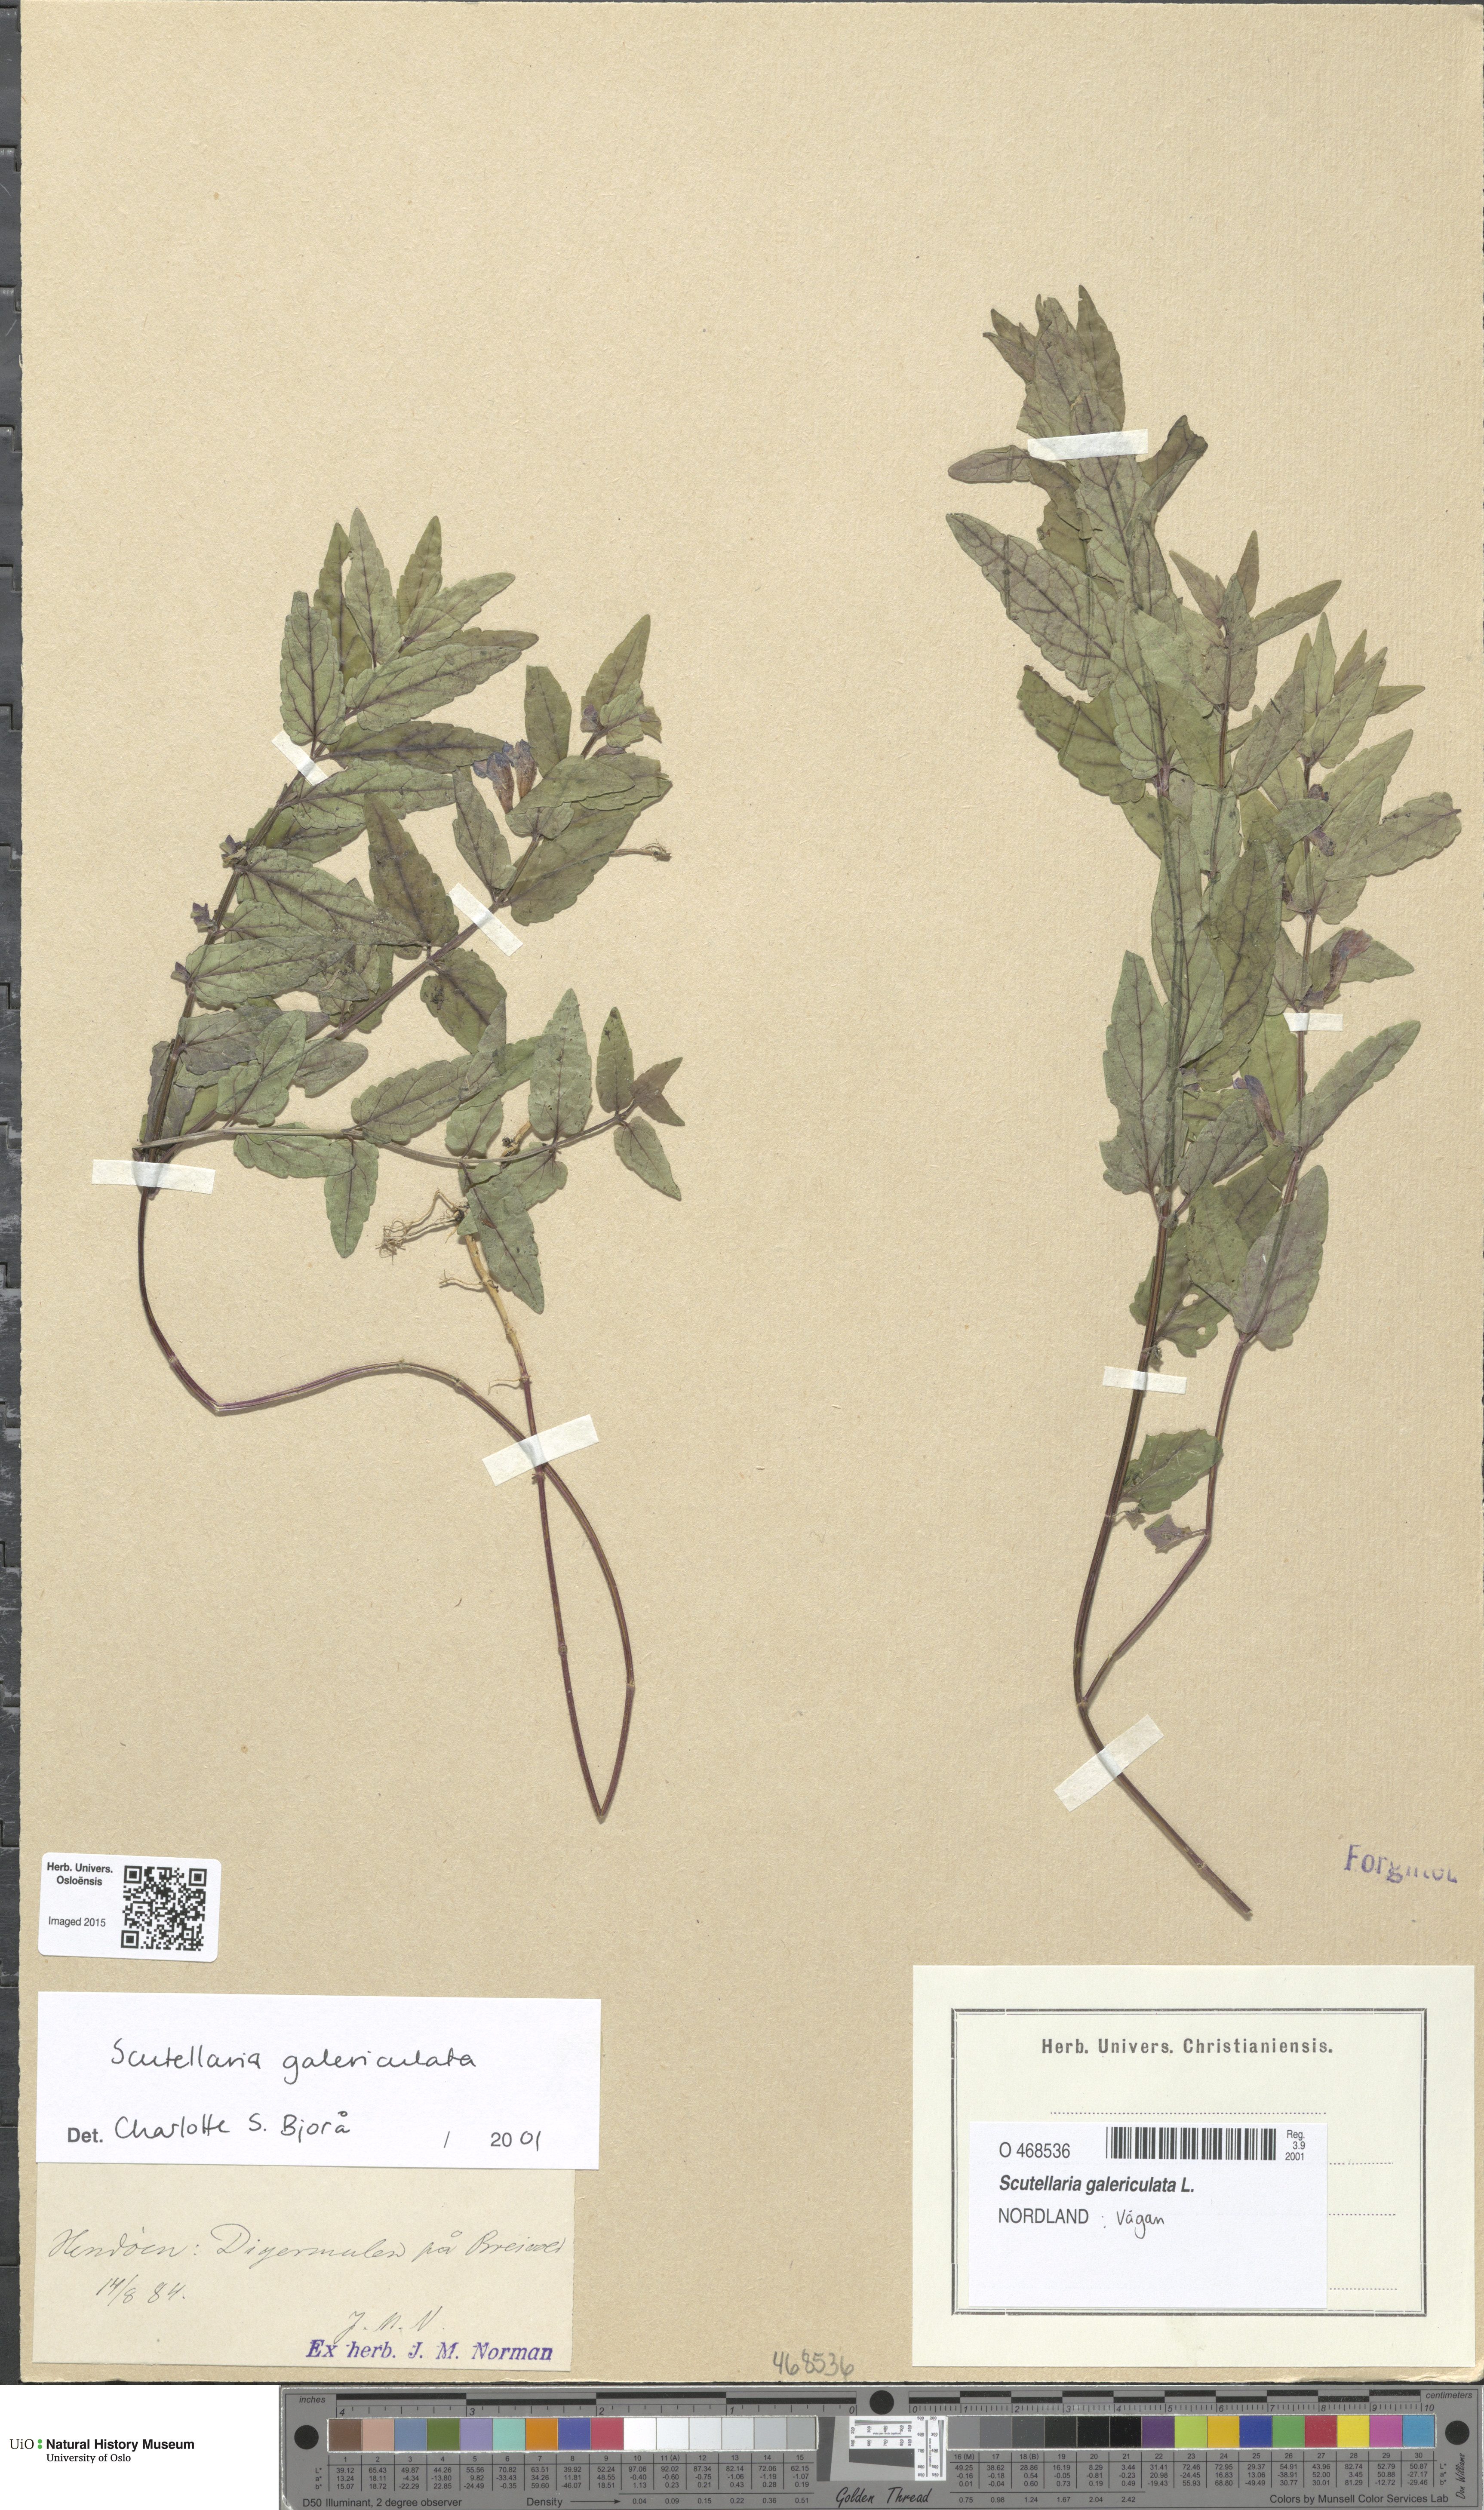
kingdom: Plantae
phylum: Tracheophyta
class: Magnoliopsida
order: Lamiales
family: Lamiaceae
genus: Scutellaria
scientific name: Scutellaria galericulata
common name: Skullcap
